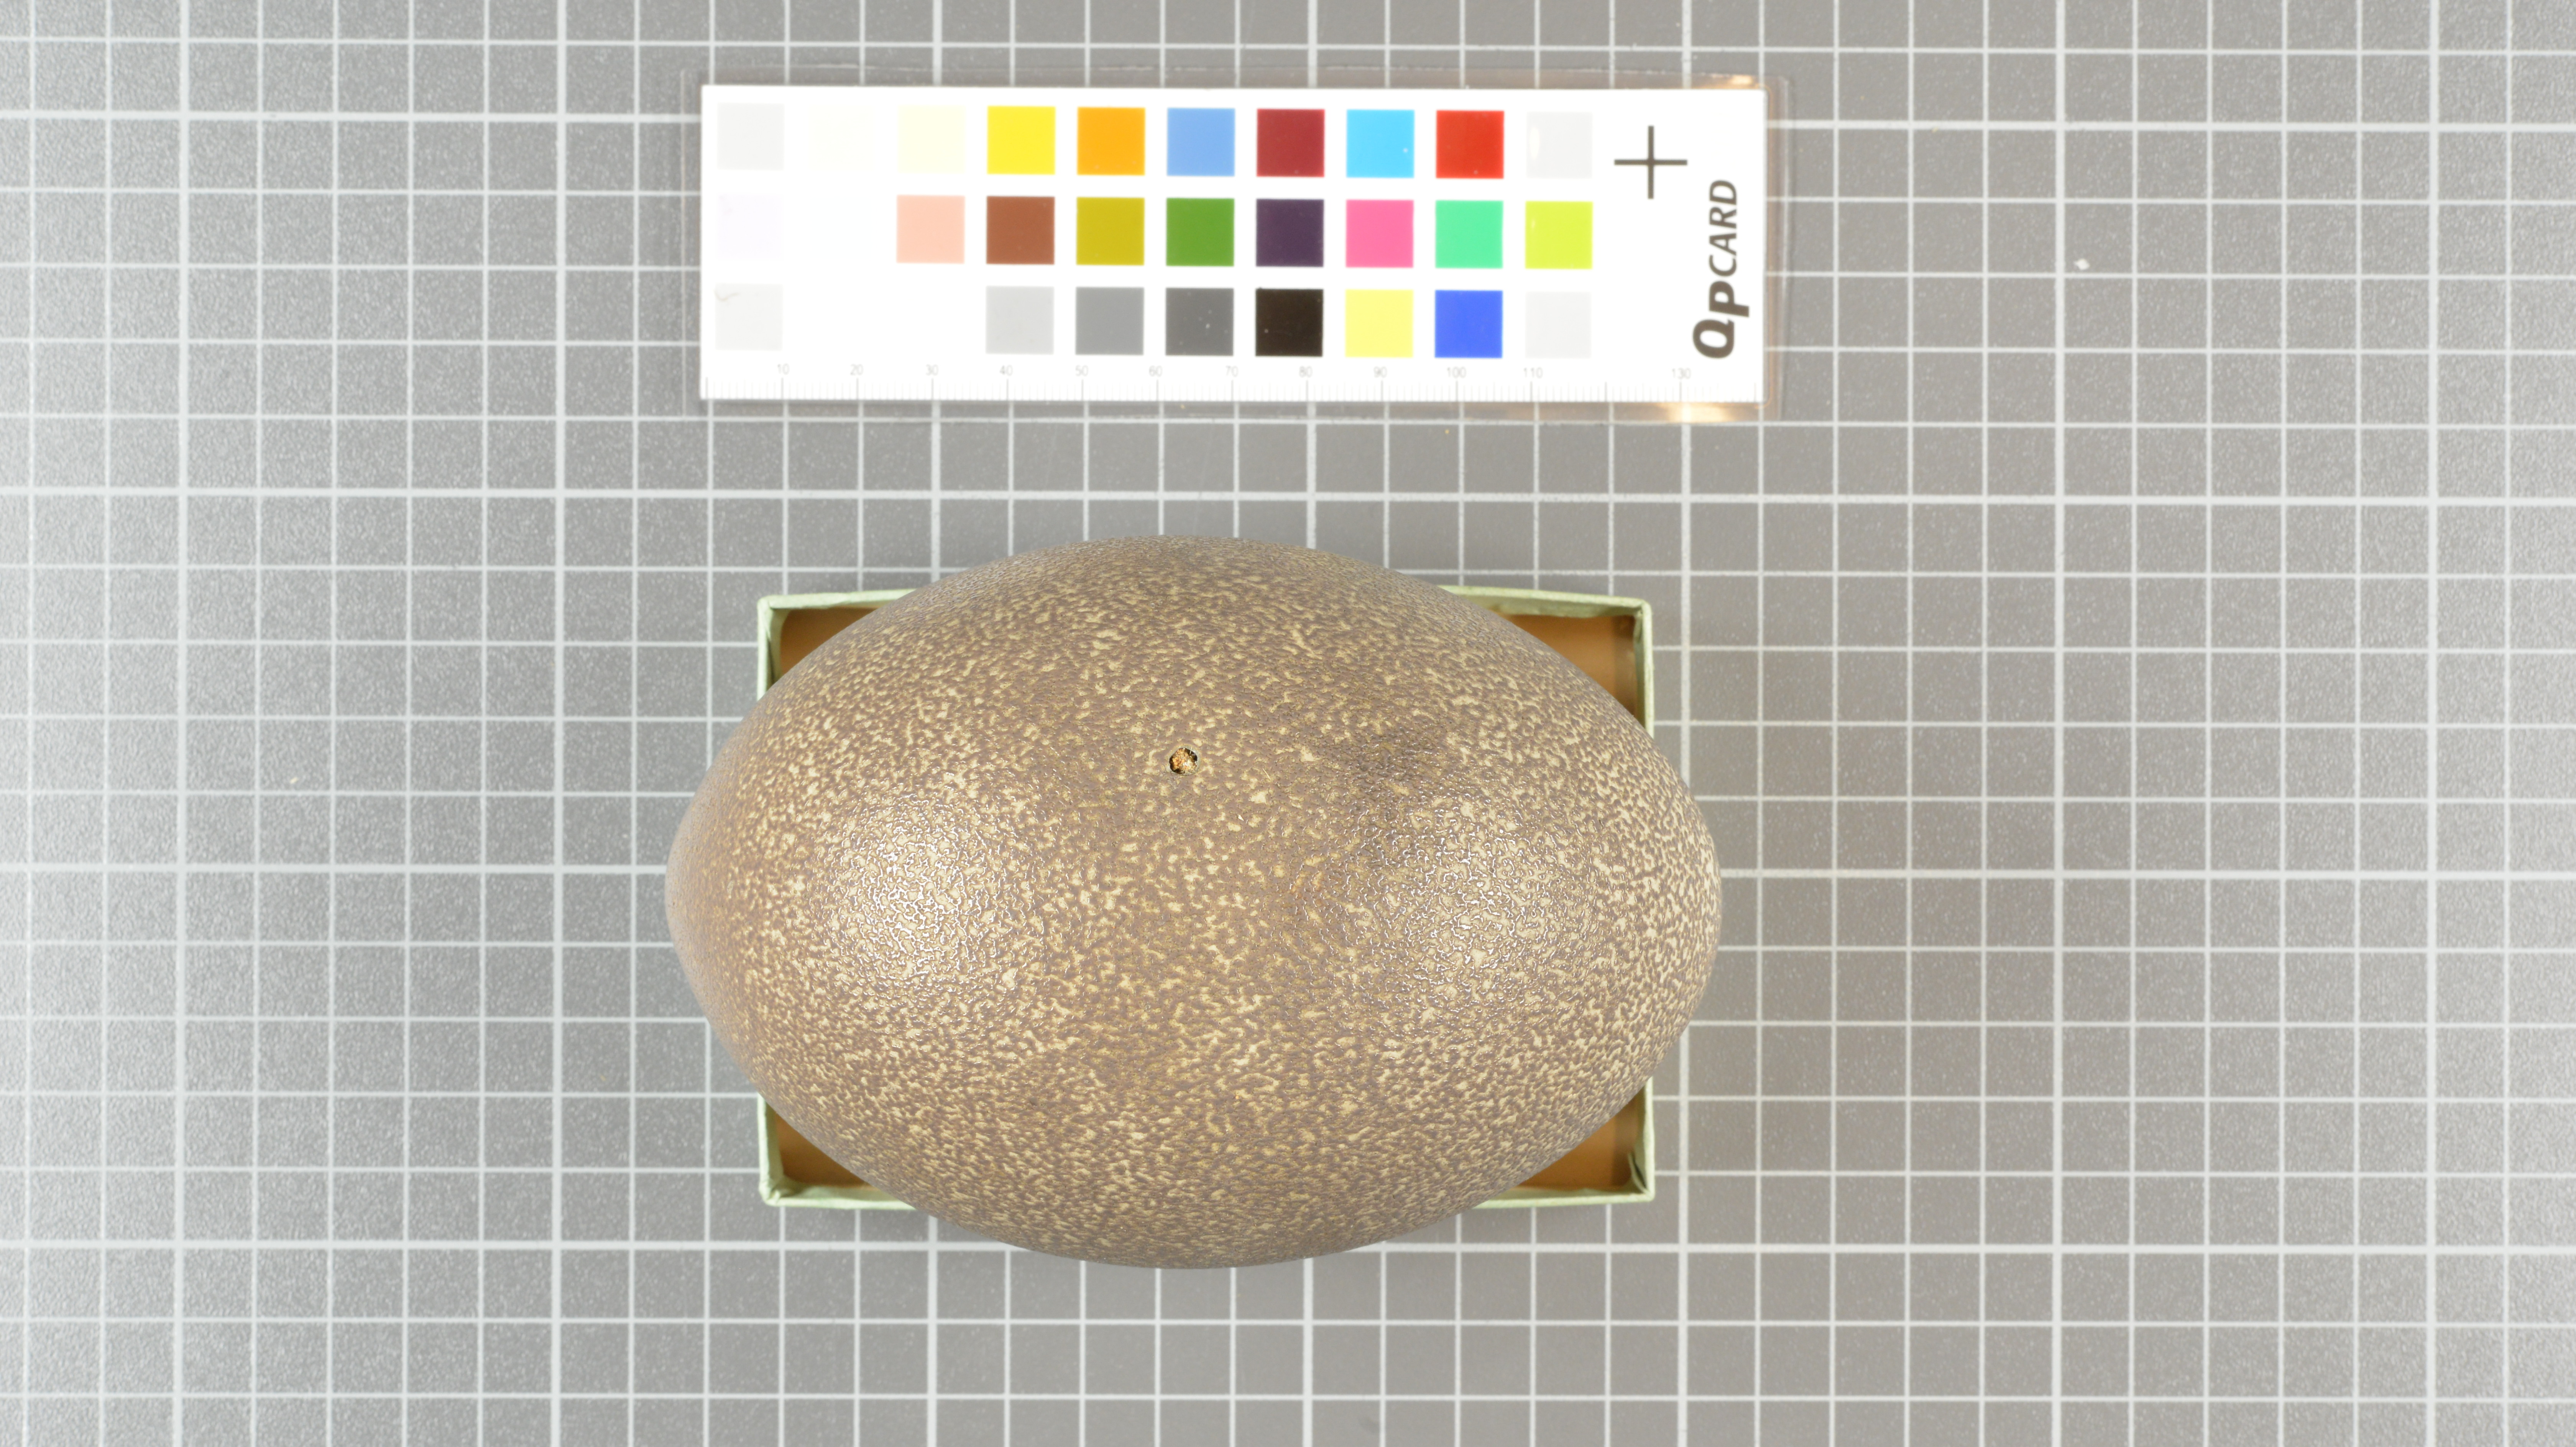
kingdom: Animalia
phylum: Chordata
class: Aves
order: Casuariiformes
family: Dromaiidae
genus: Dromaius
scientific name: Dromaius novaehollandiae
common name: Emu
